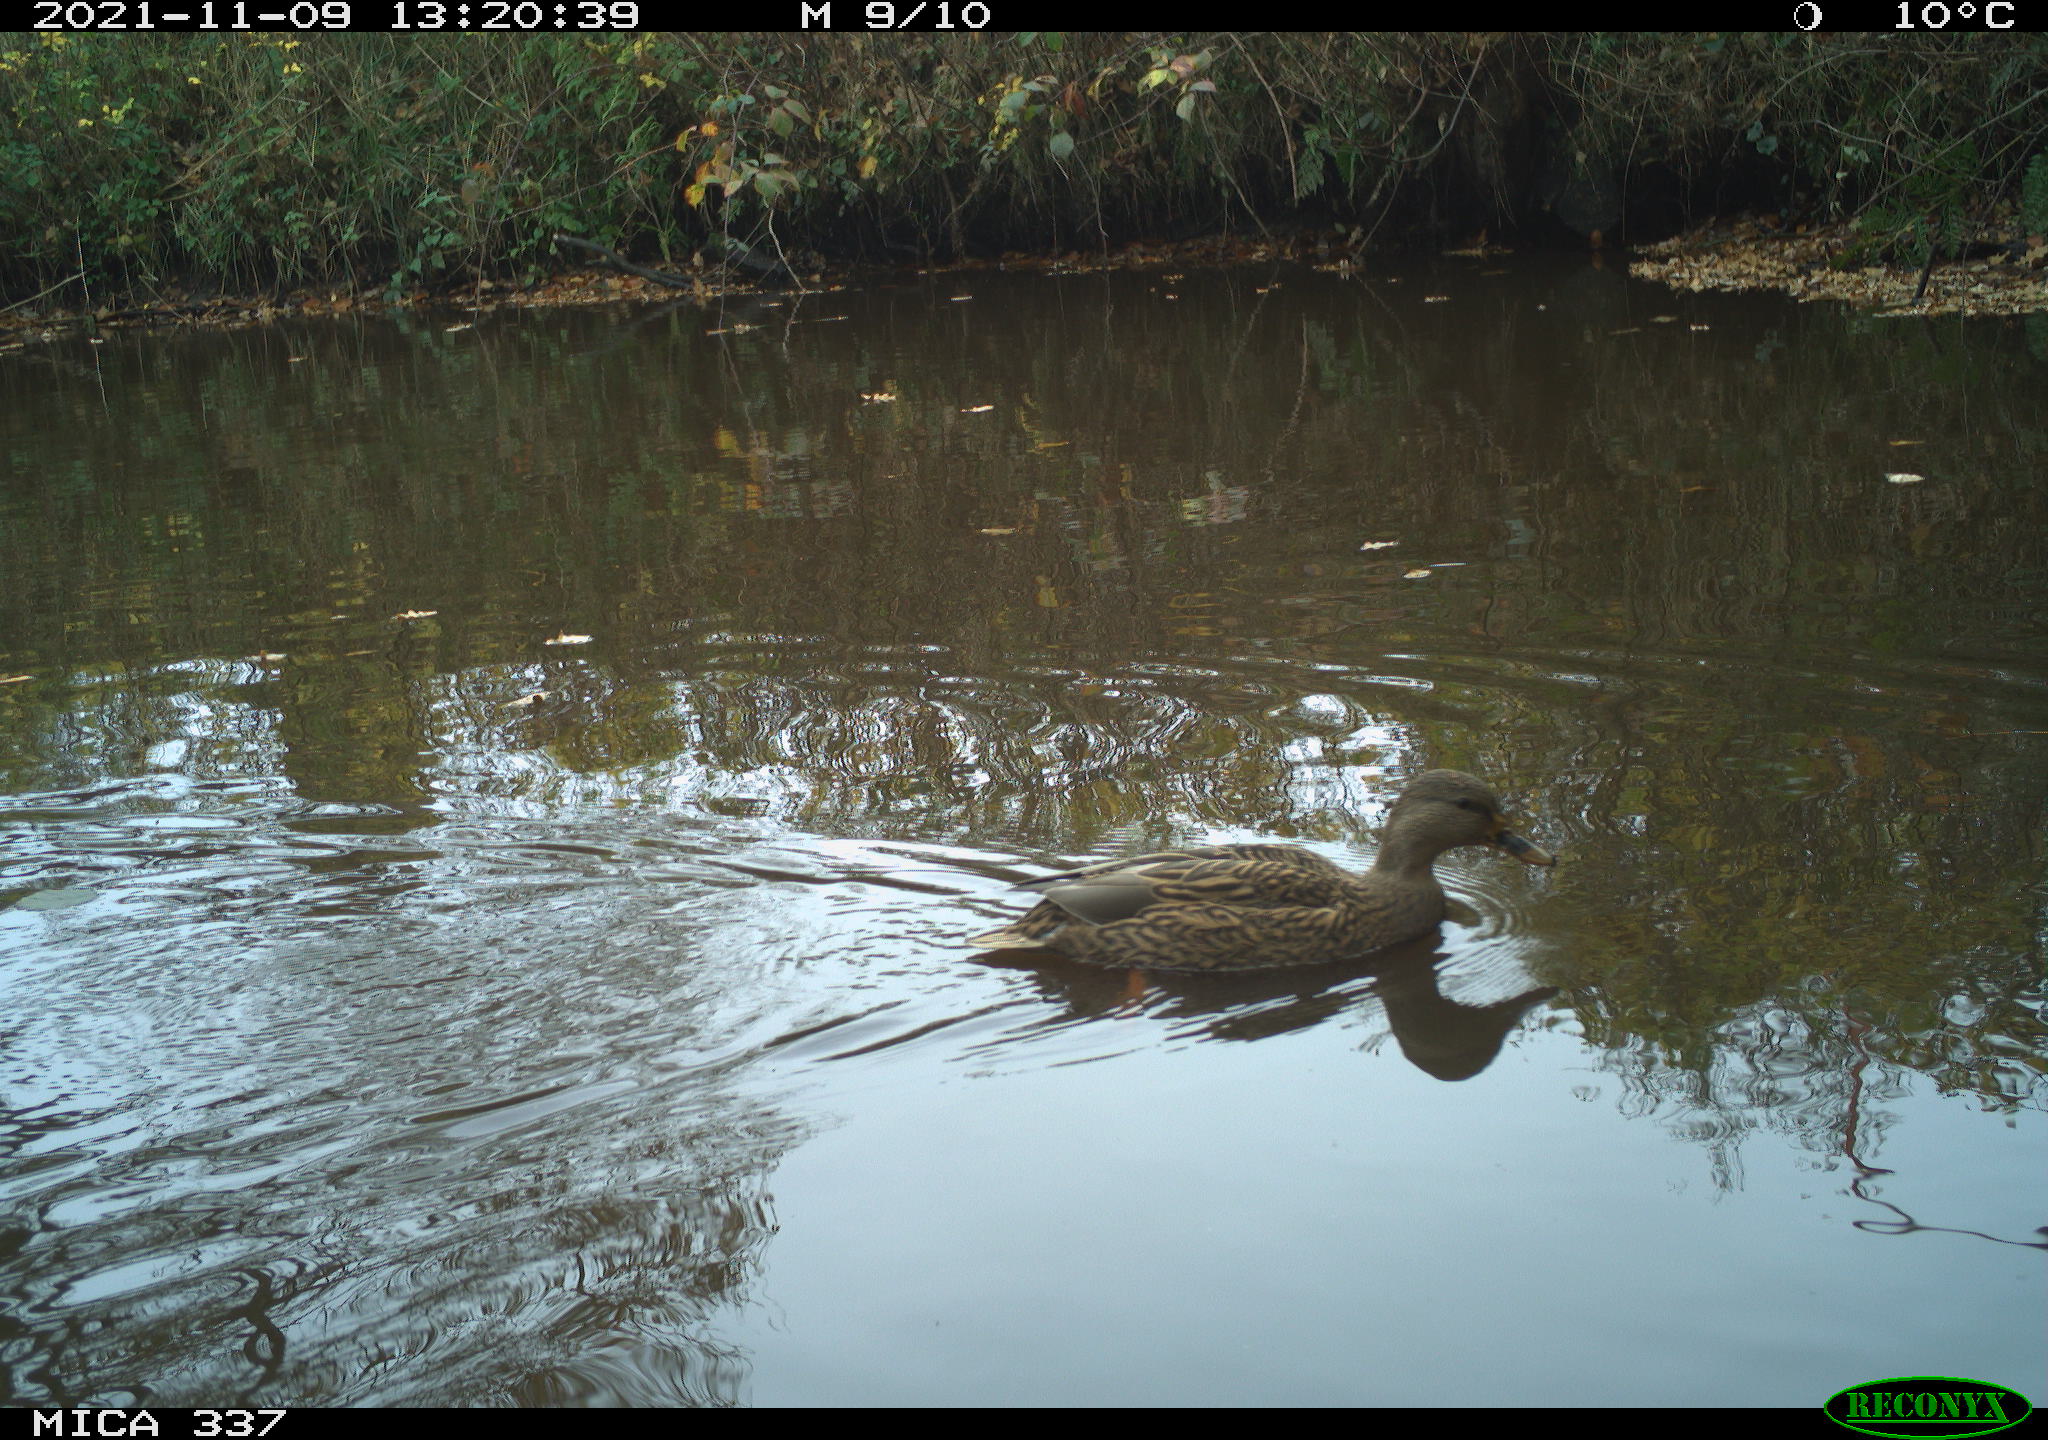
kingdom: Animalia
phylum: Chordata
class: Aves
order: Anseriformes
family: Anatidae
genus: Anas
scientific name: Anas platyrhynchos
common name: Mallard
